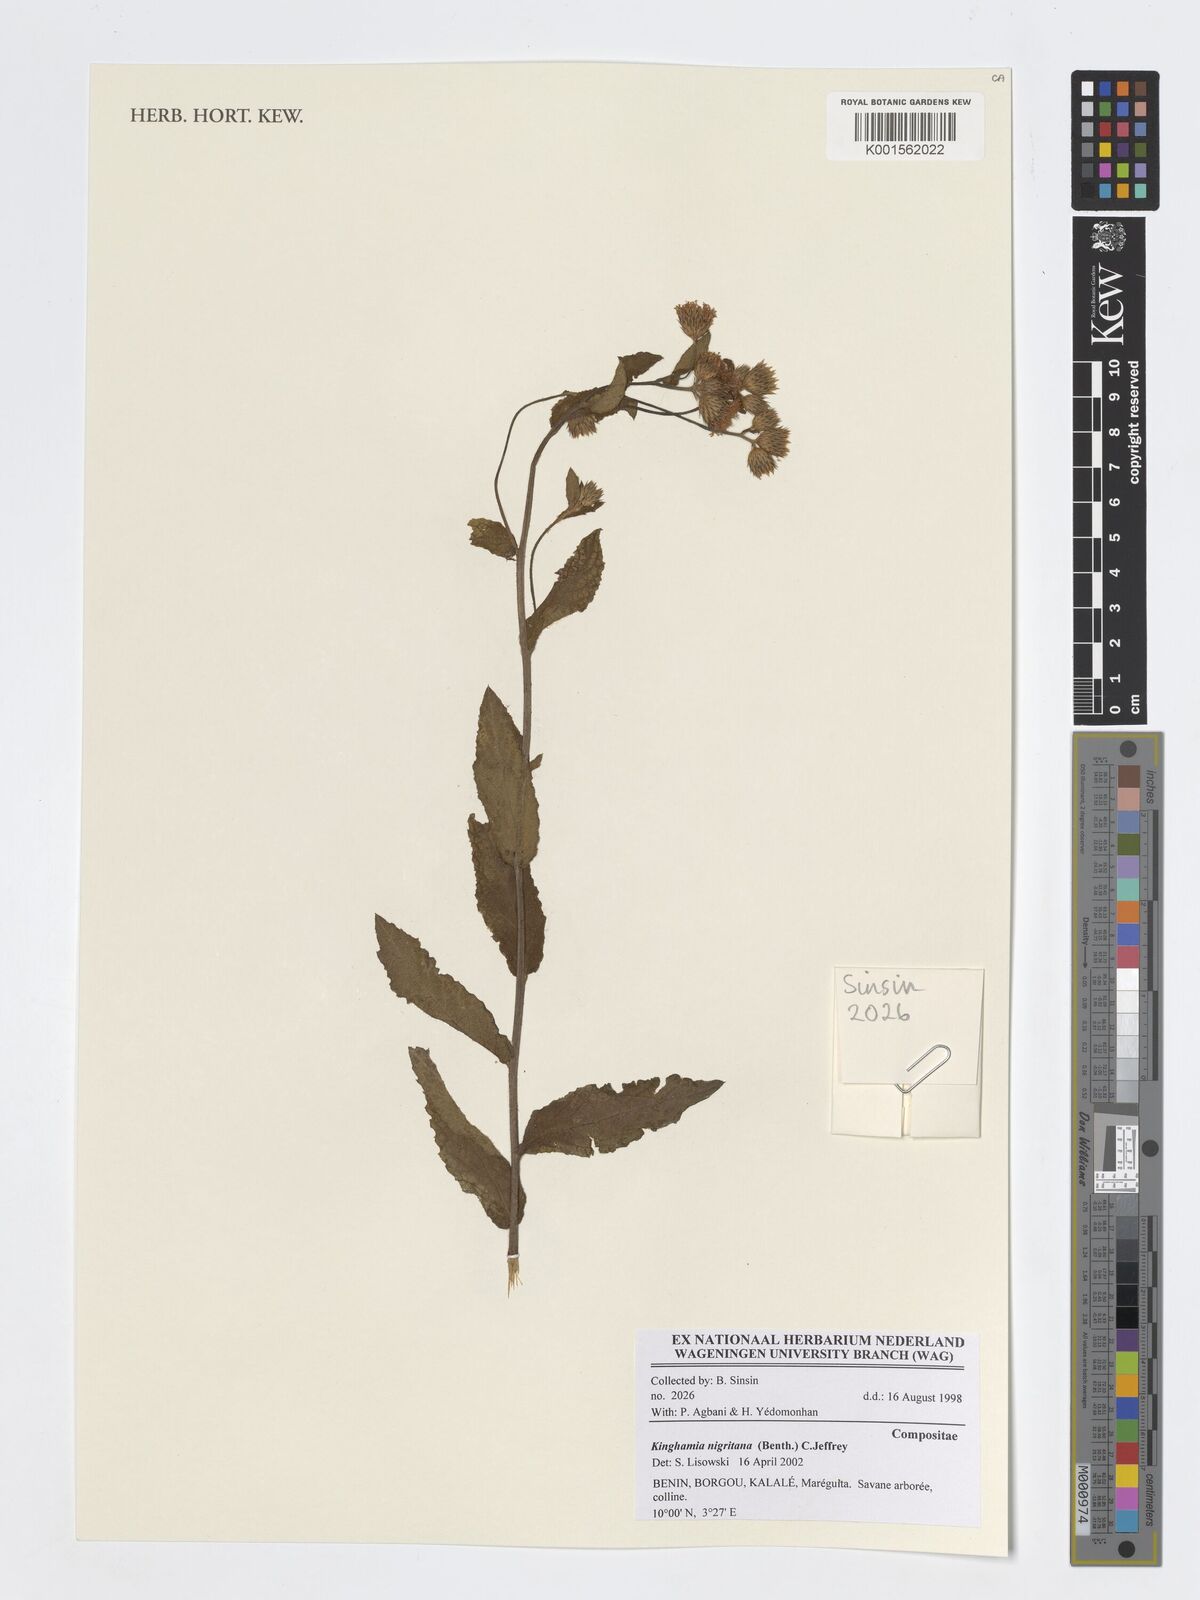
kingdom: Plantae
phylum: Tracheophyta
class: Magnoliopsida
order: Asterales
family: Asteraceae
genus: Kinghamia
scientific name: Kinghamia nigritana
